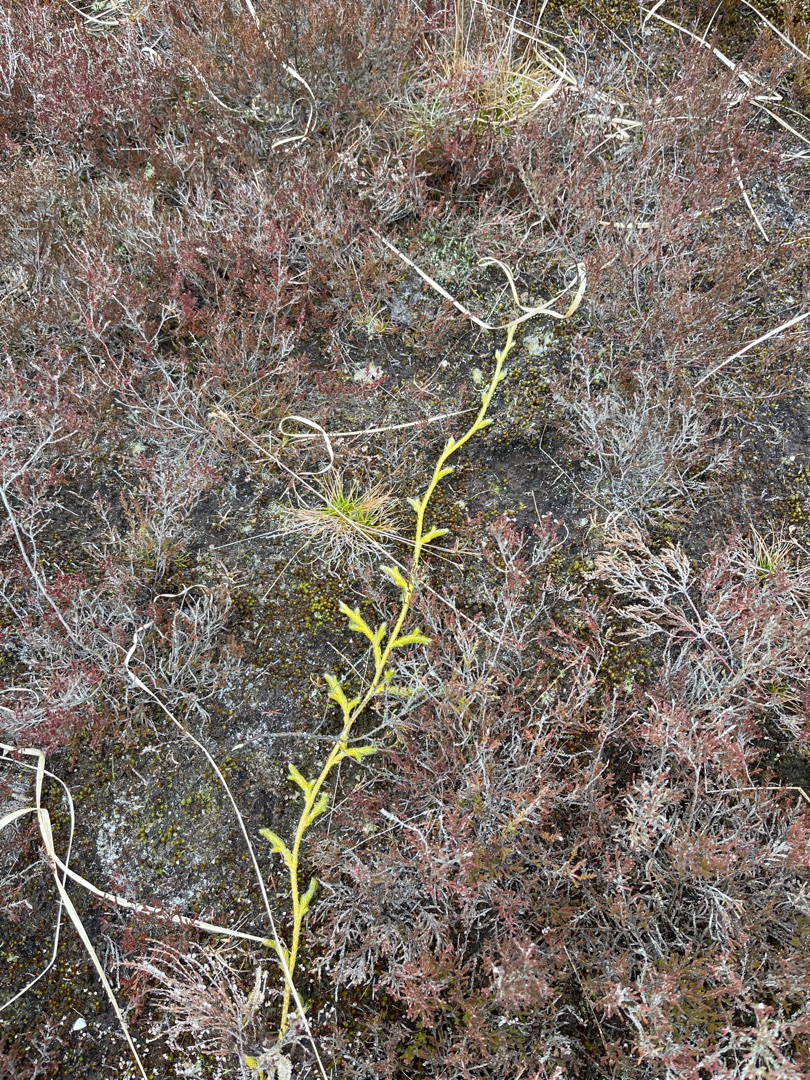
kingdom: Plantae
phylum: Tracheophyta
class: Lycopodiopsida
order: Lycopodiales
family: Lycopodiaceae
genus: Lycopodium
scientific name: Lycopodium clavatum
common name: Almindelig ulvefod
